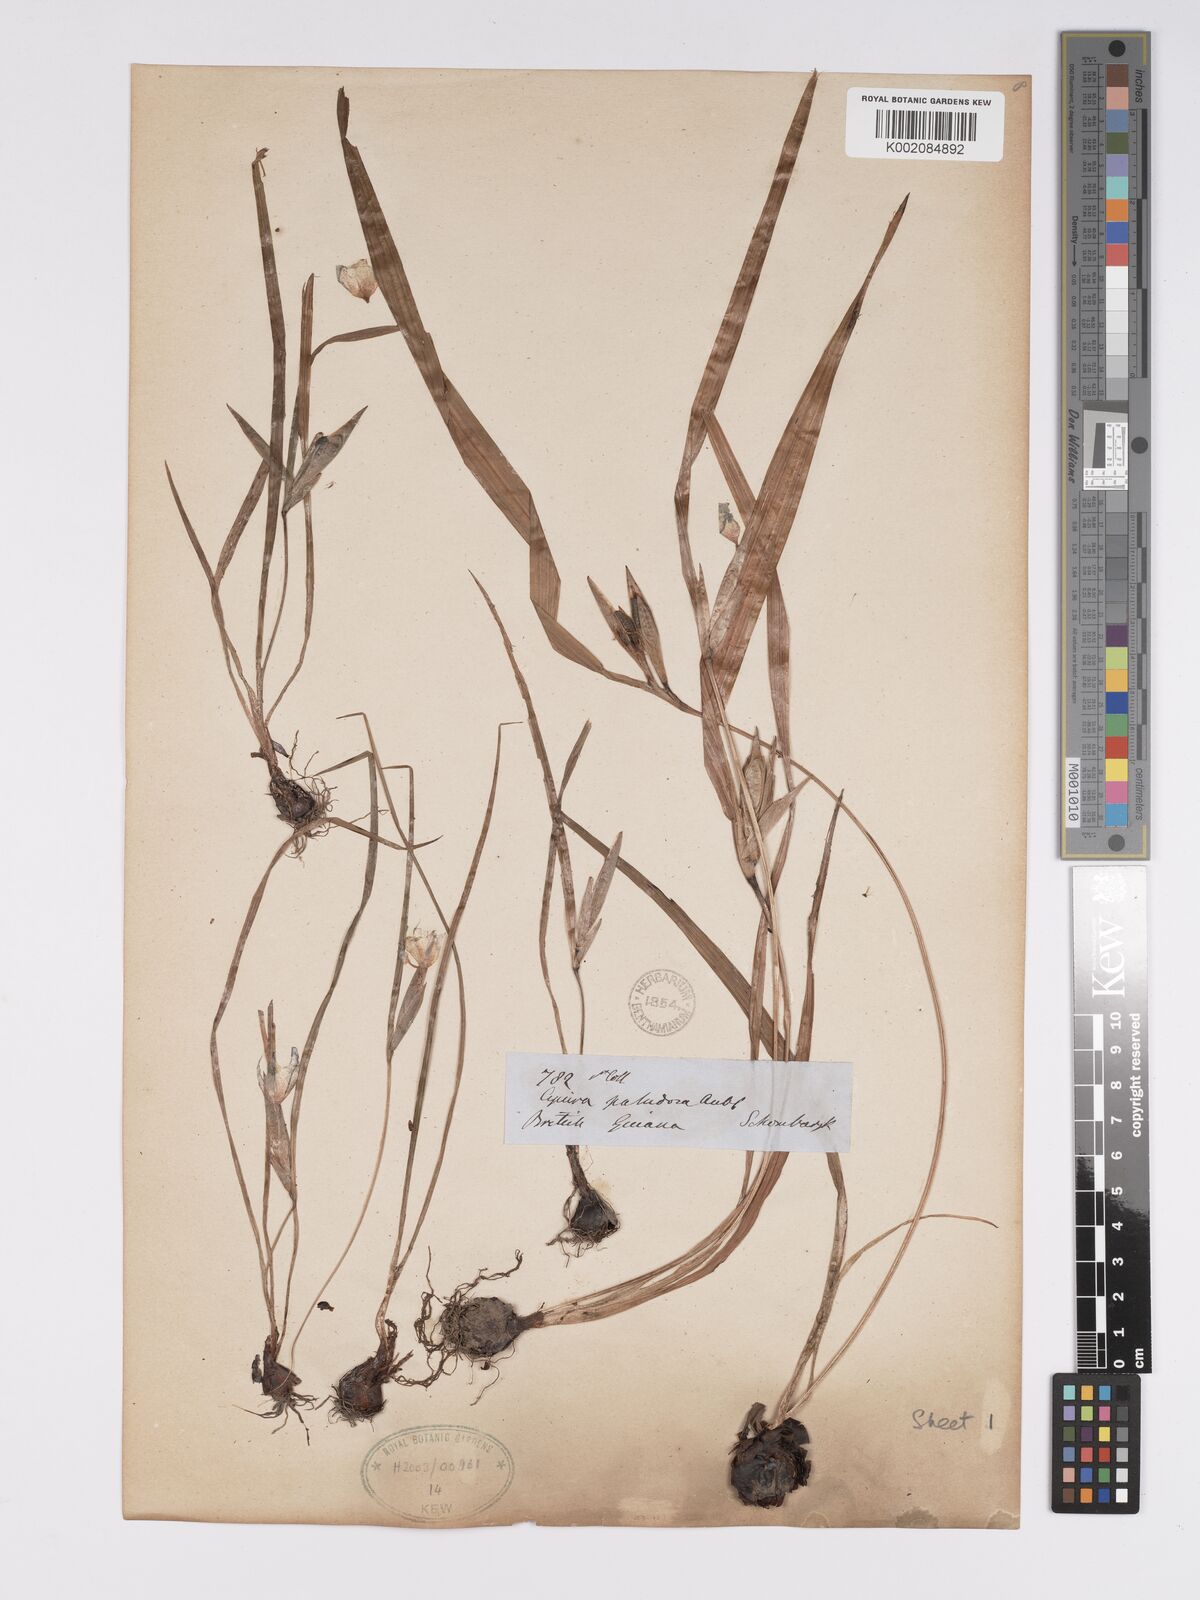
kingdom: Plantae
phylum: Tracheophyta
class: Liliopsida
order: Asparagales
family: Iridaceae
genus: Cipura
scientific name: Cipura paludosa
